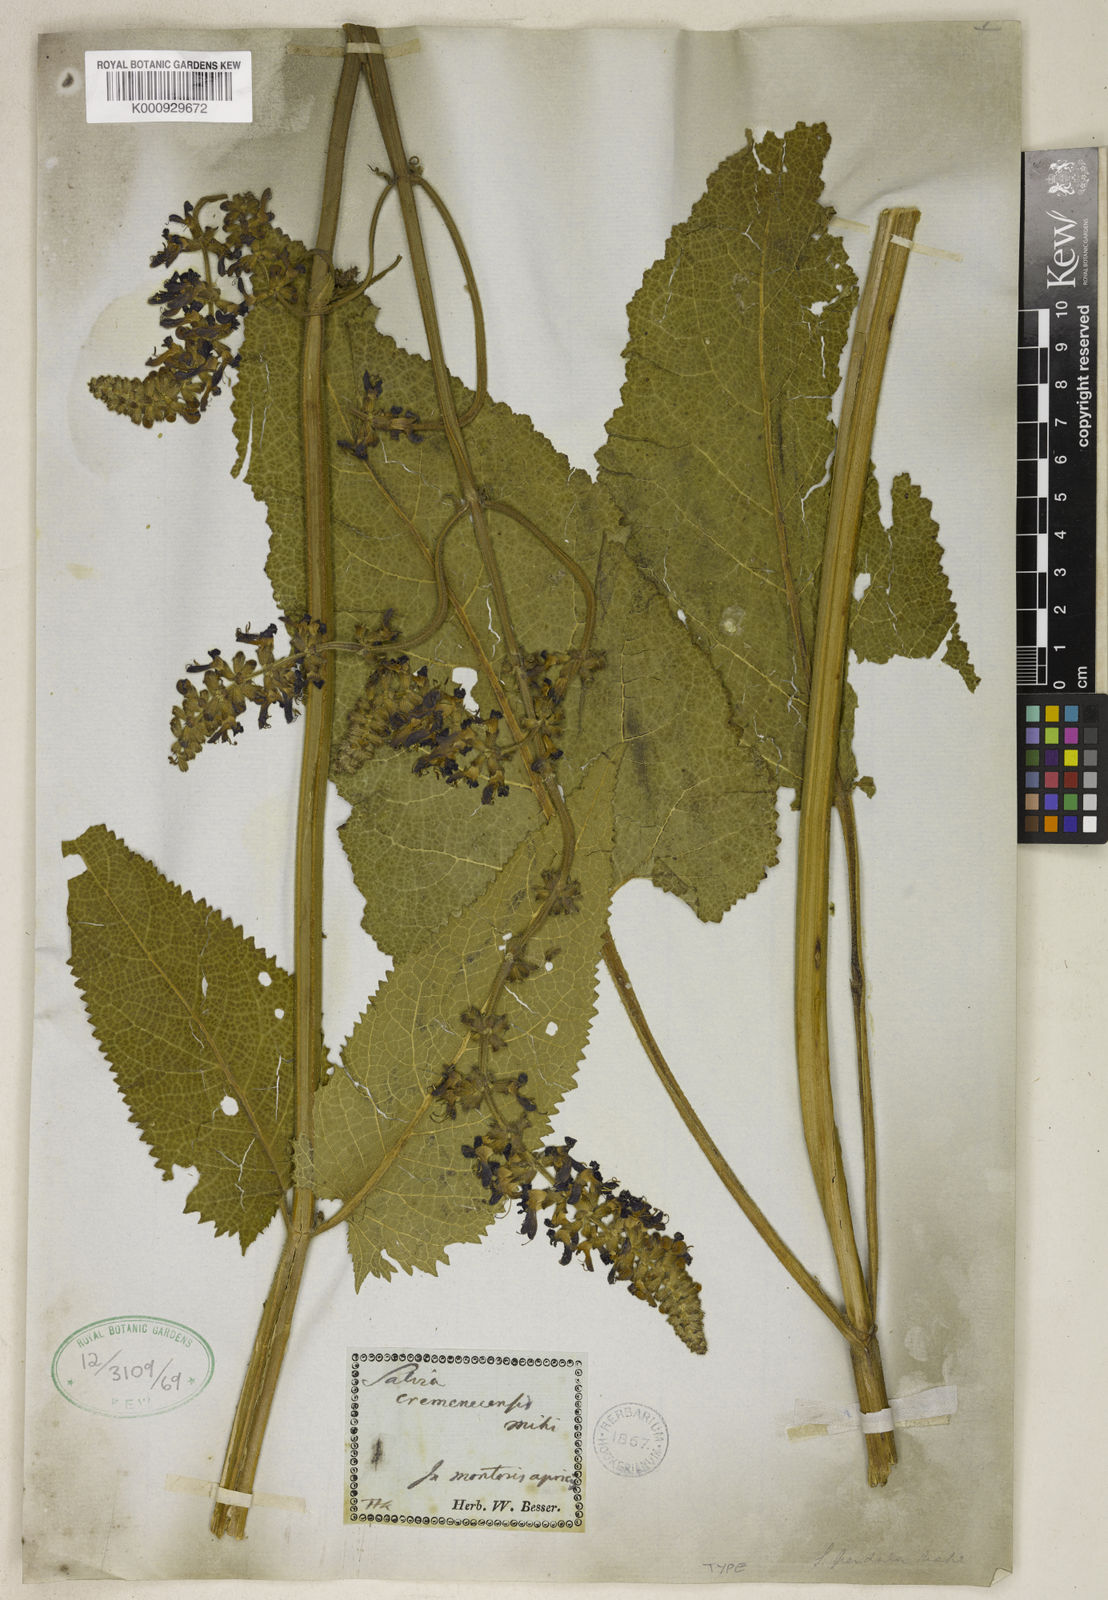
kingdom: Plantae
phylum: Tracheophyta
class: Magnoliopsida
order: Lamiales
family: Lamiaceae
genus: Salvia
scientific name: Salvia nutans
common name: Nodding sage
